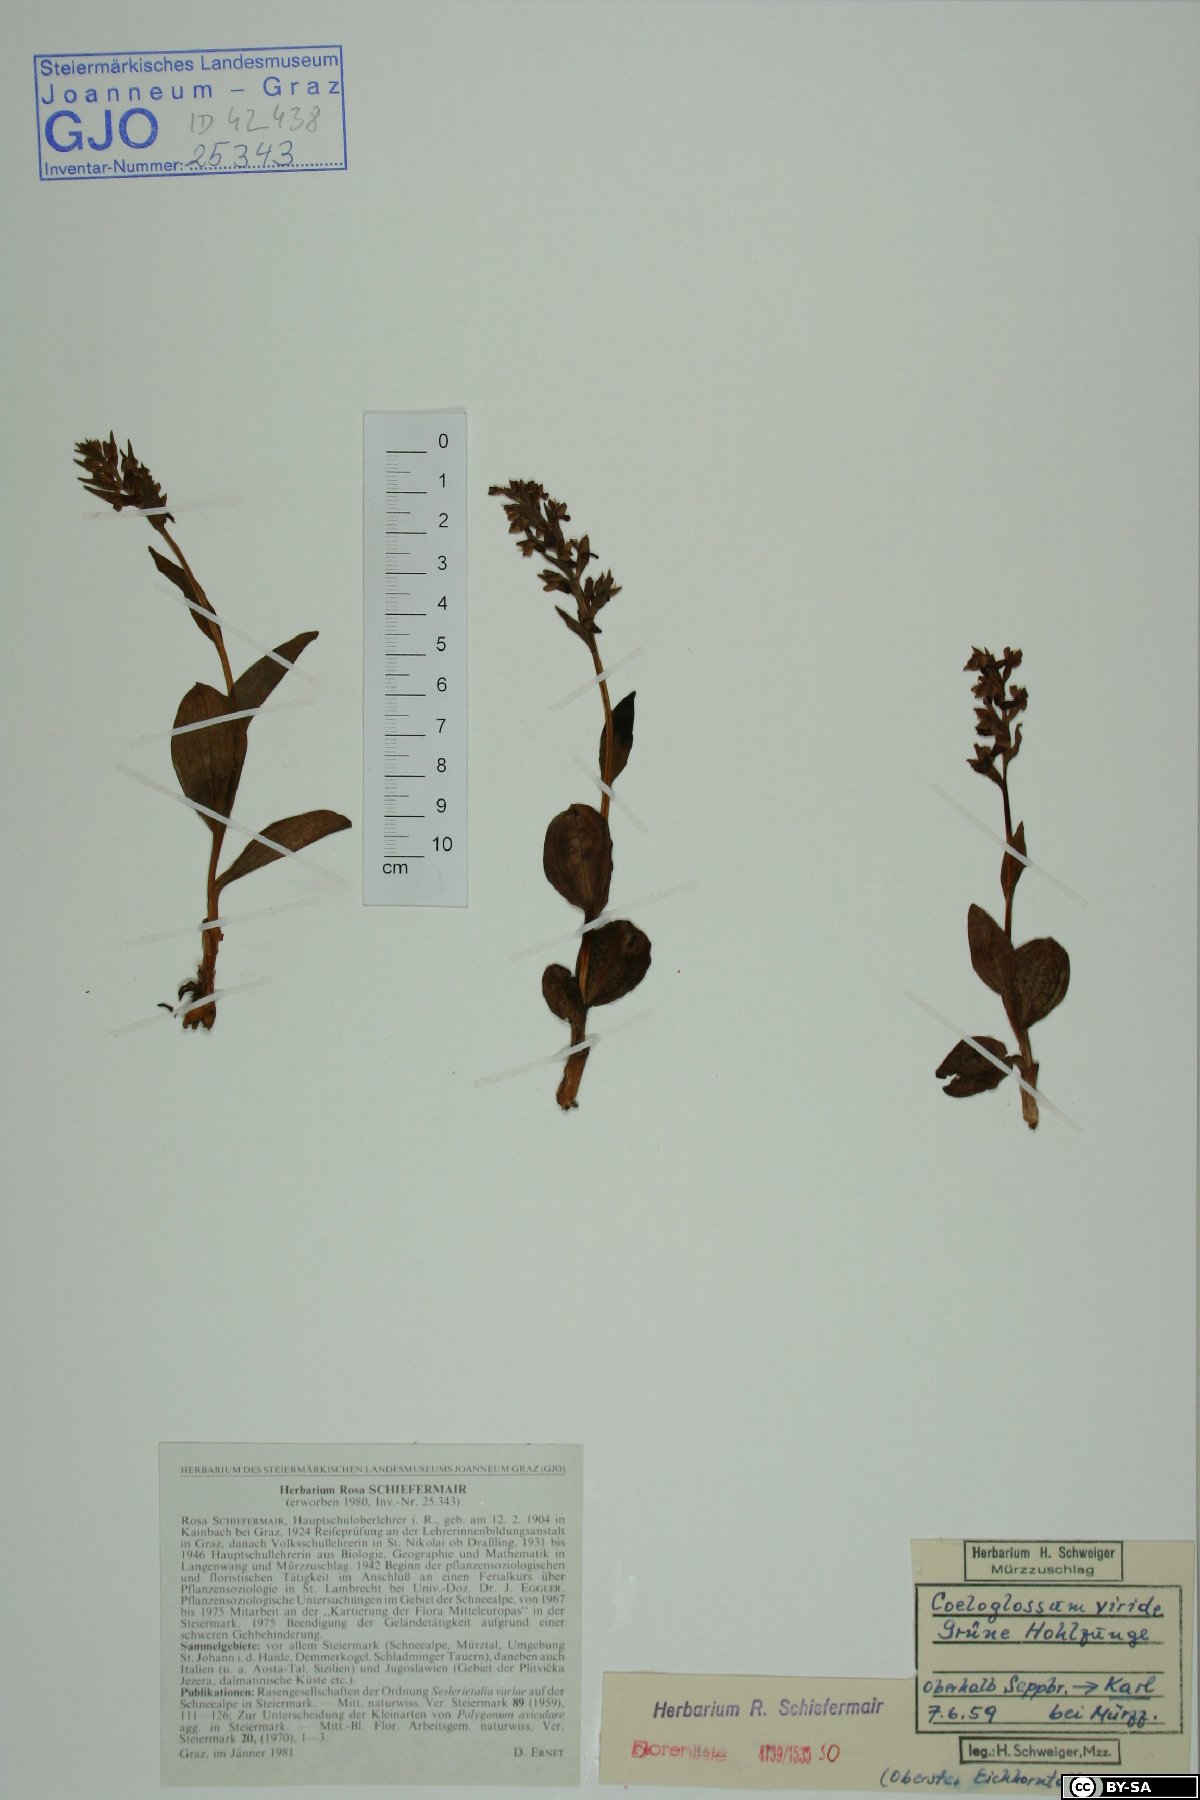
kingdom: Plantae
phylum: Tracheophyta
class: Liliopsida
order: Asparagales
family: Orchidaceae
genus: Dactylorhiza
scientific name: Dactylorhiza viridis
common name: Longbract frog orchid
